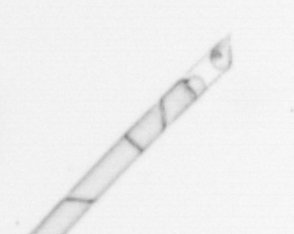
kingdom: Chromista
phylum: Ochrophyta
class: Bacillariophyceae
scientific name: Bacillariophyceae
